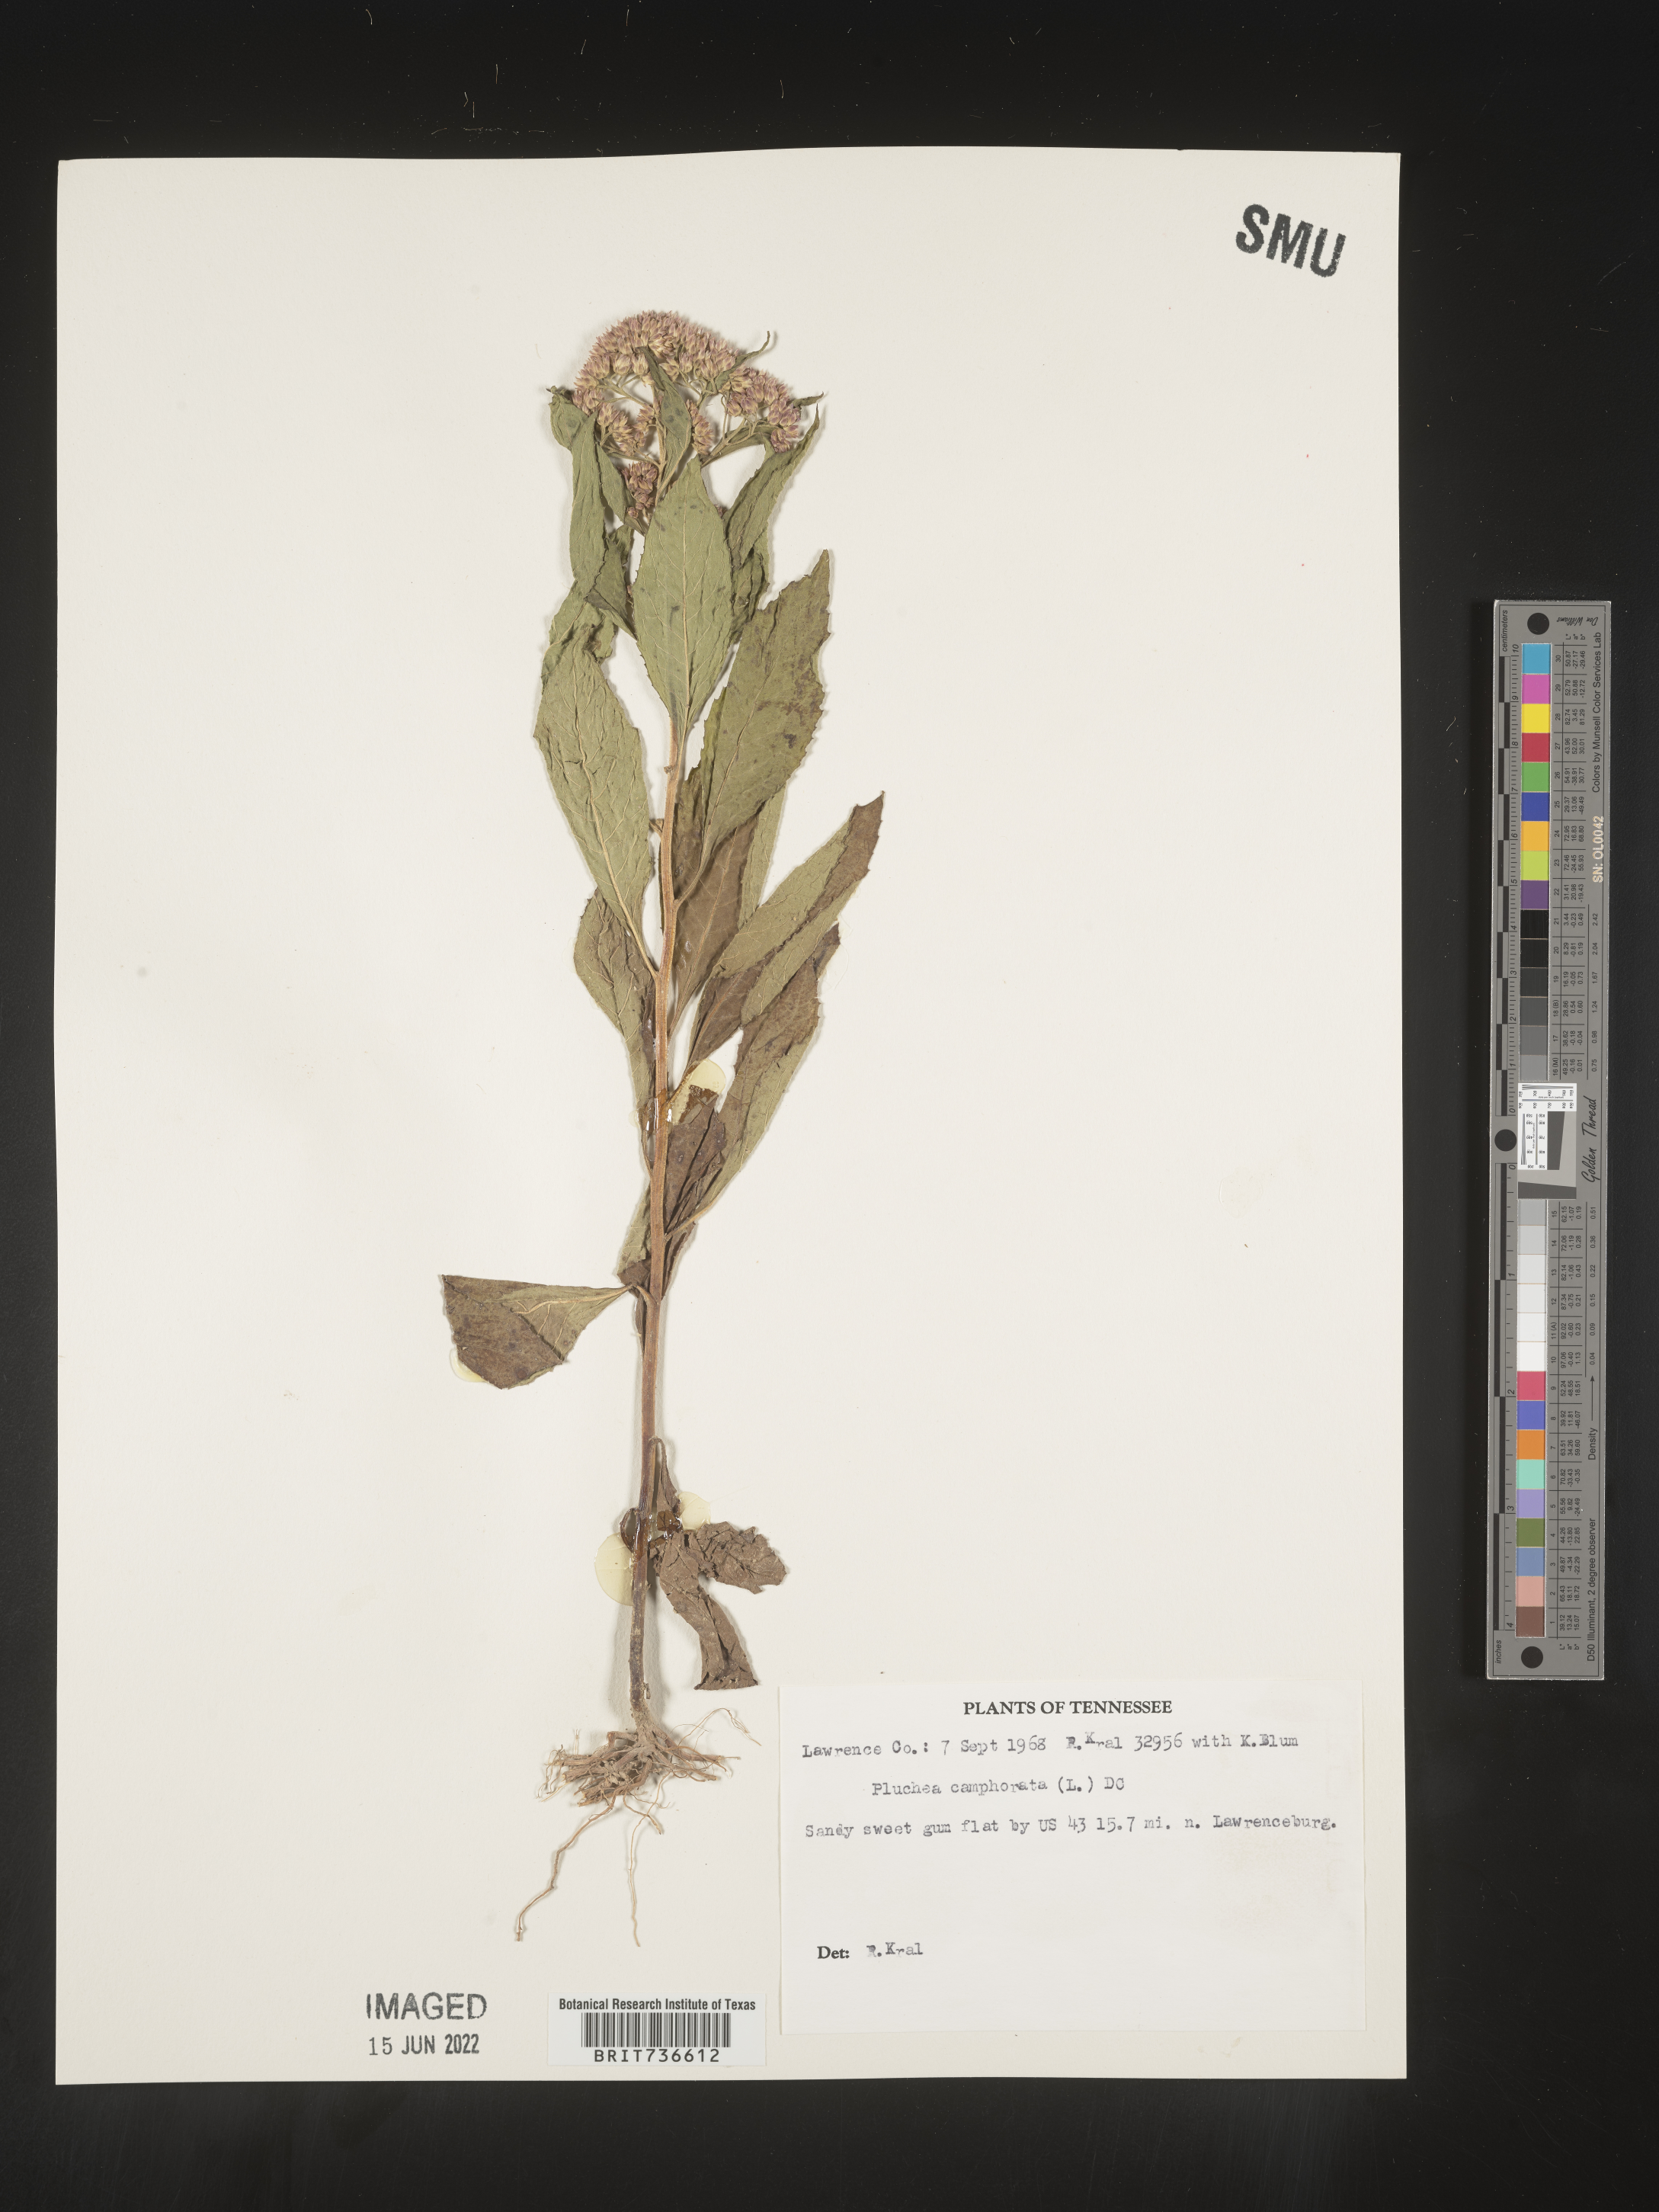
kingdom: Plantae
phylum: Tracheophyta
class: Magnoliopsida
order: Asterales
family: Asteraceae
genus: Pluchea
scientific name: Pluchea camphorata
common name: Camphor pluchea
